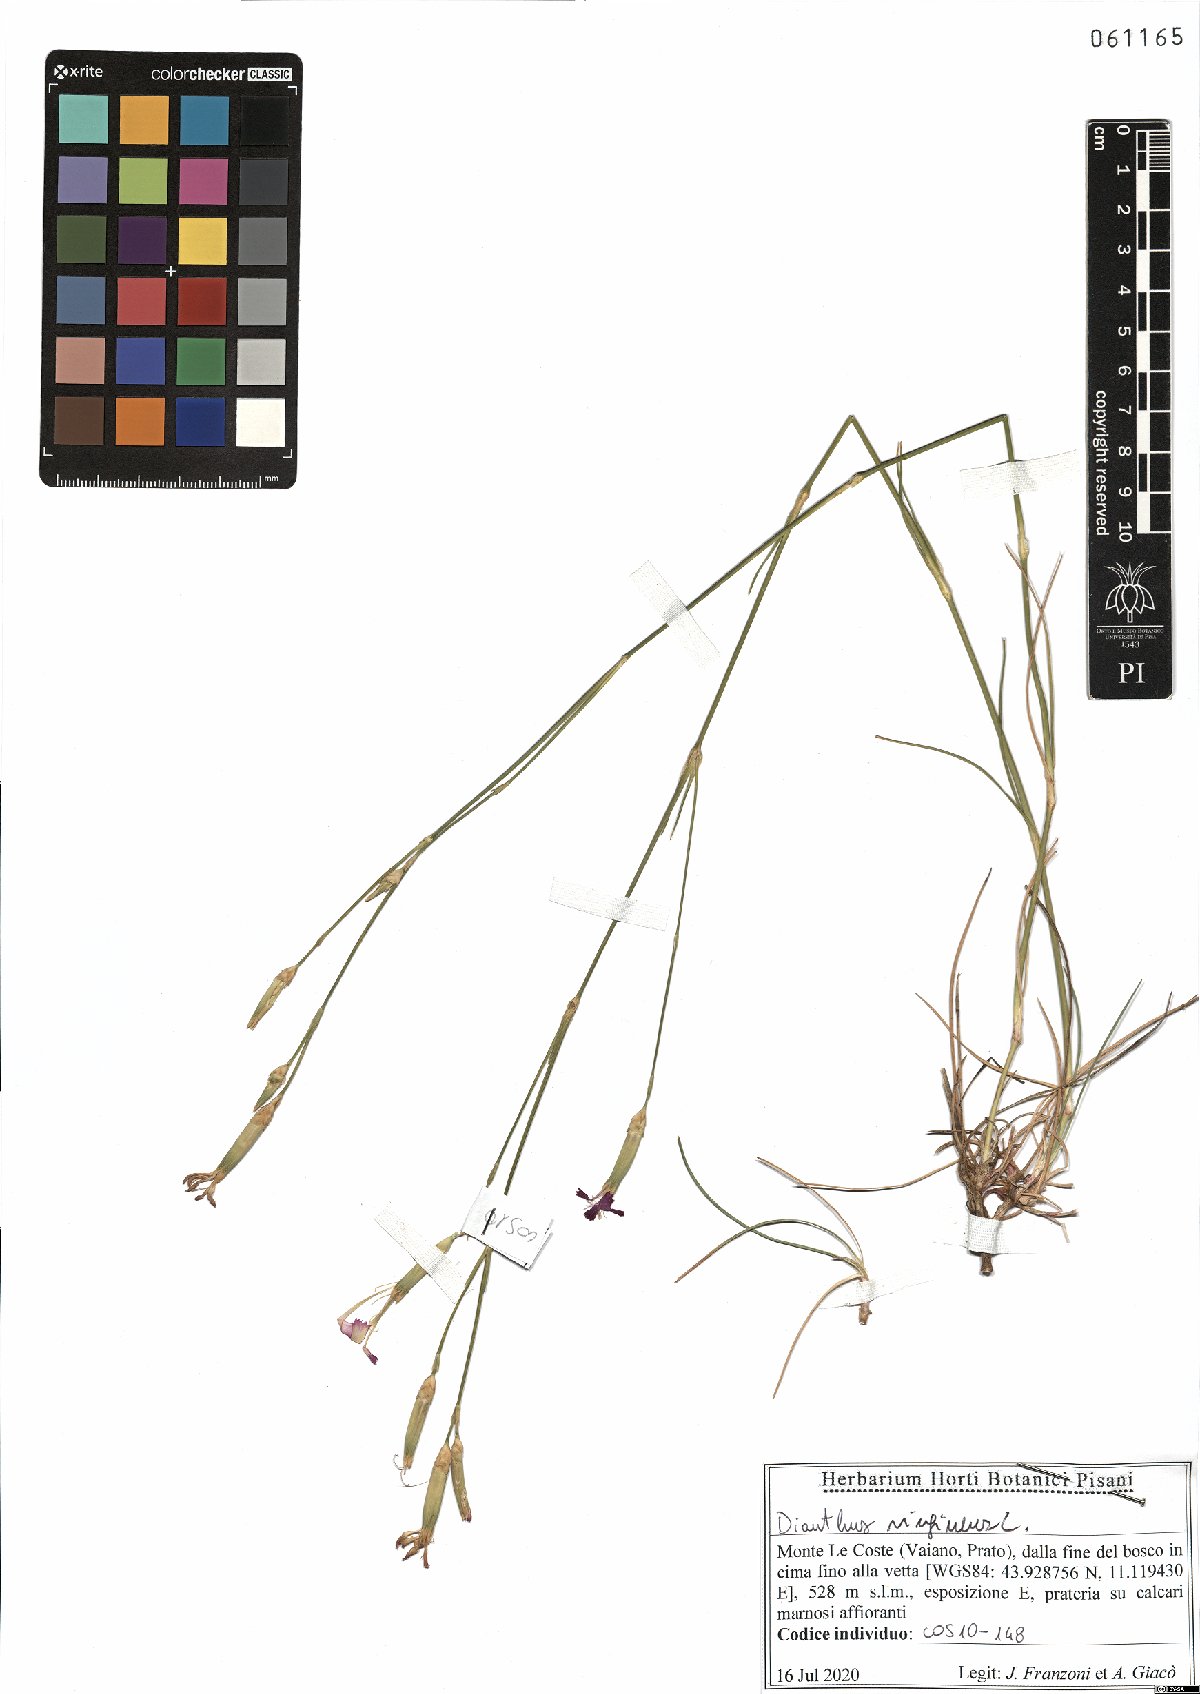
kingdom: Plantae
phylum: Tracheophyta
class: Magnoliopsida
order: Caryophyllales
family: Caryophyllaceae
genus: Dianthus
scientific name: Dianthus virgineus
